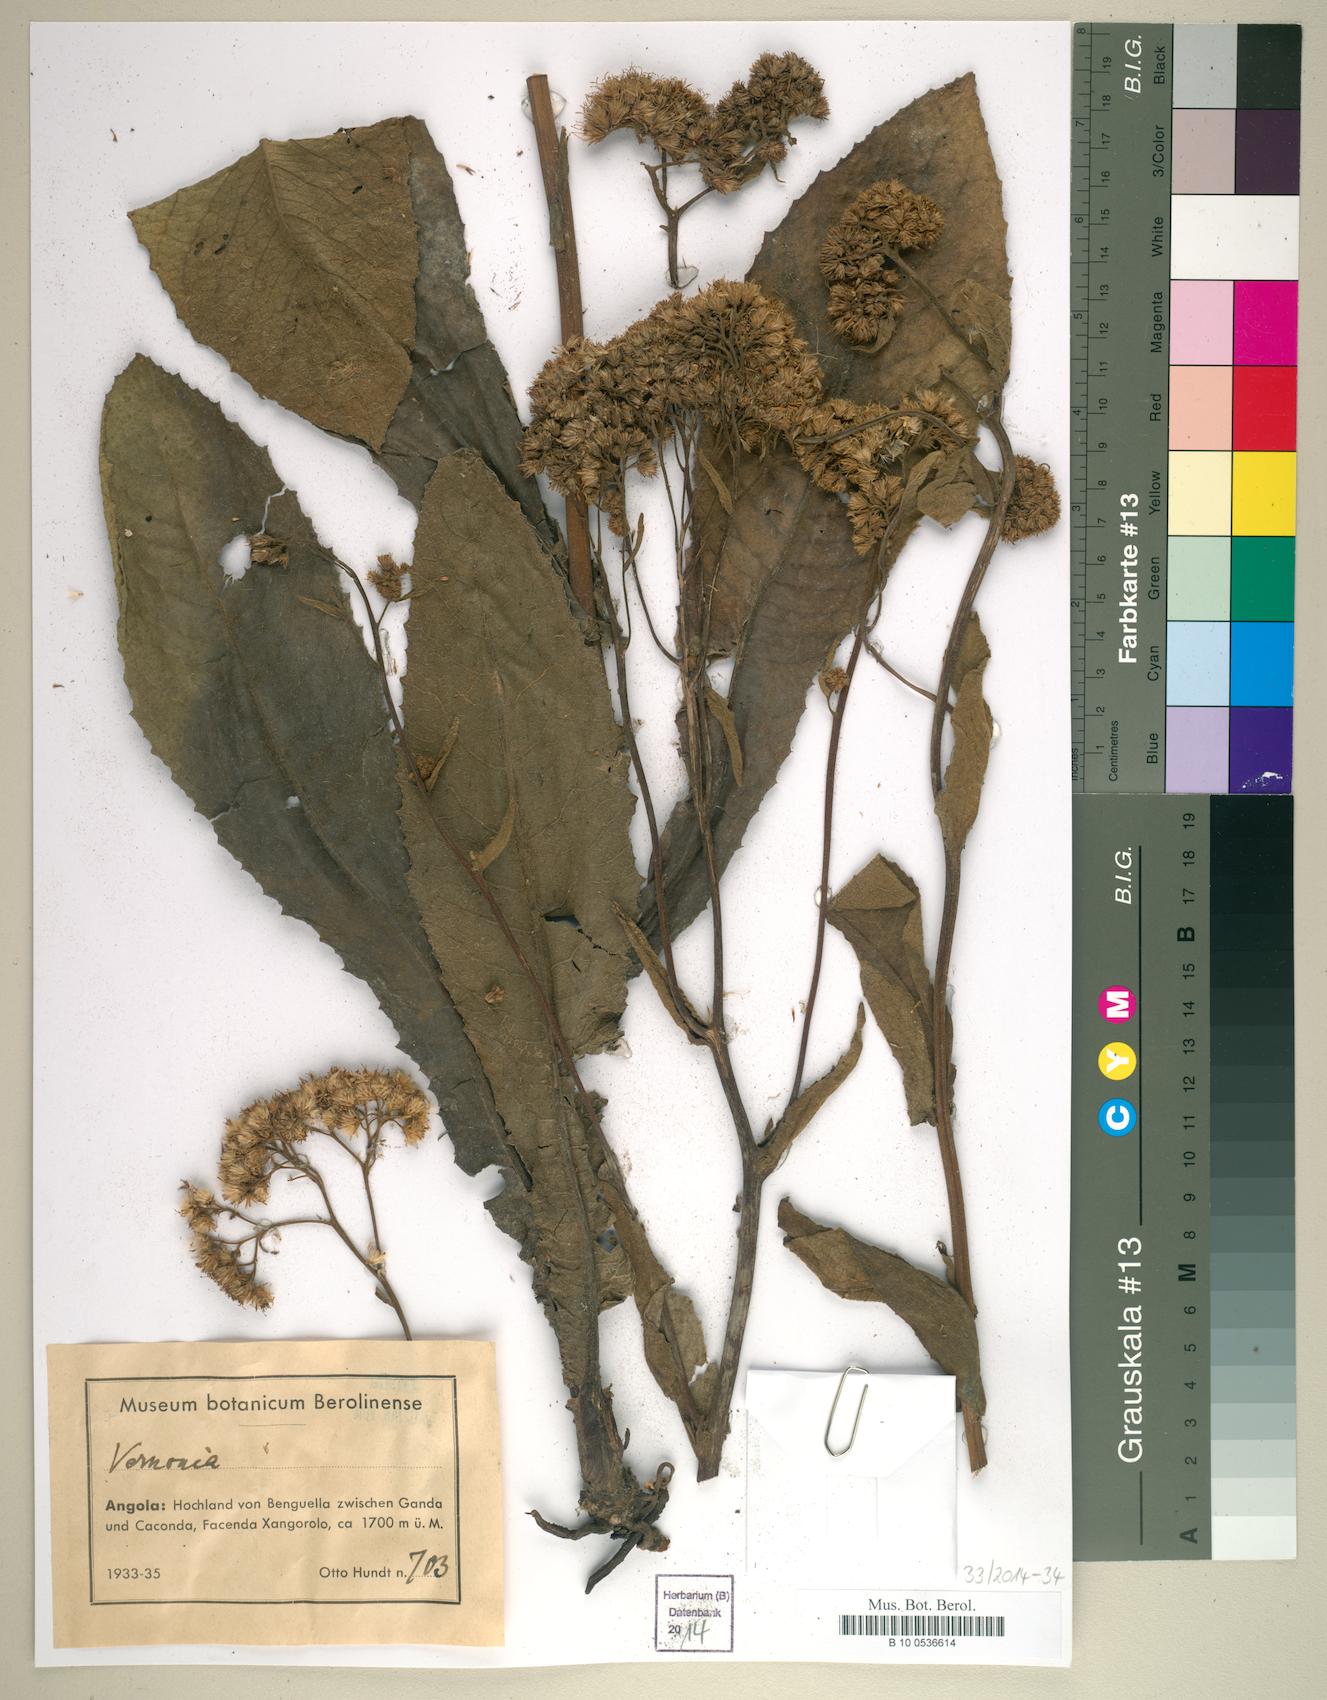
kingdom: Plantae
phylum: Tracheophyta
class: Magnoliopsida
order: Asterales
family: Asteraceae
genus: Vernonia
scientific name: Vernonia
